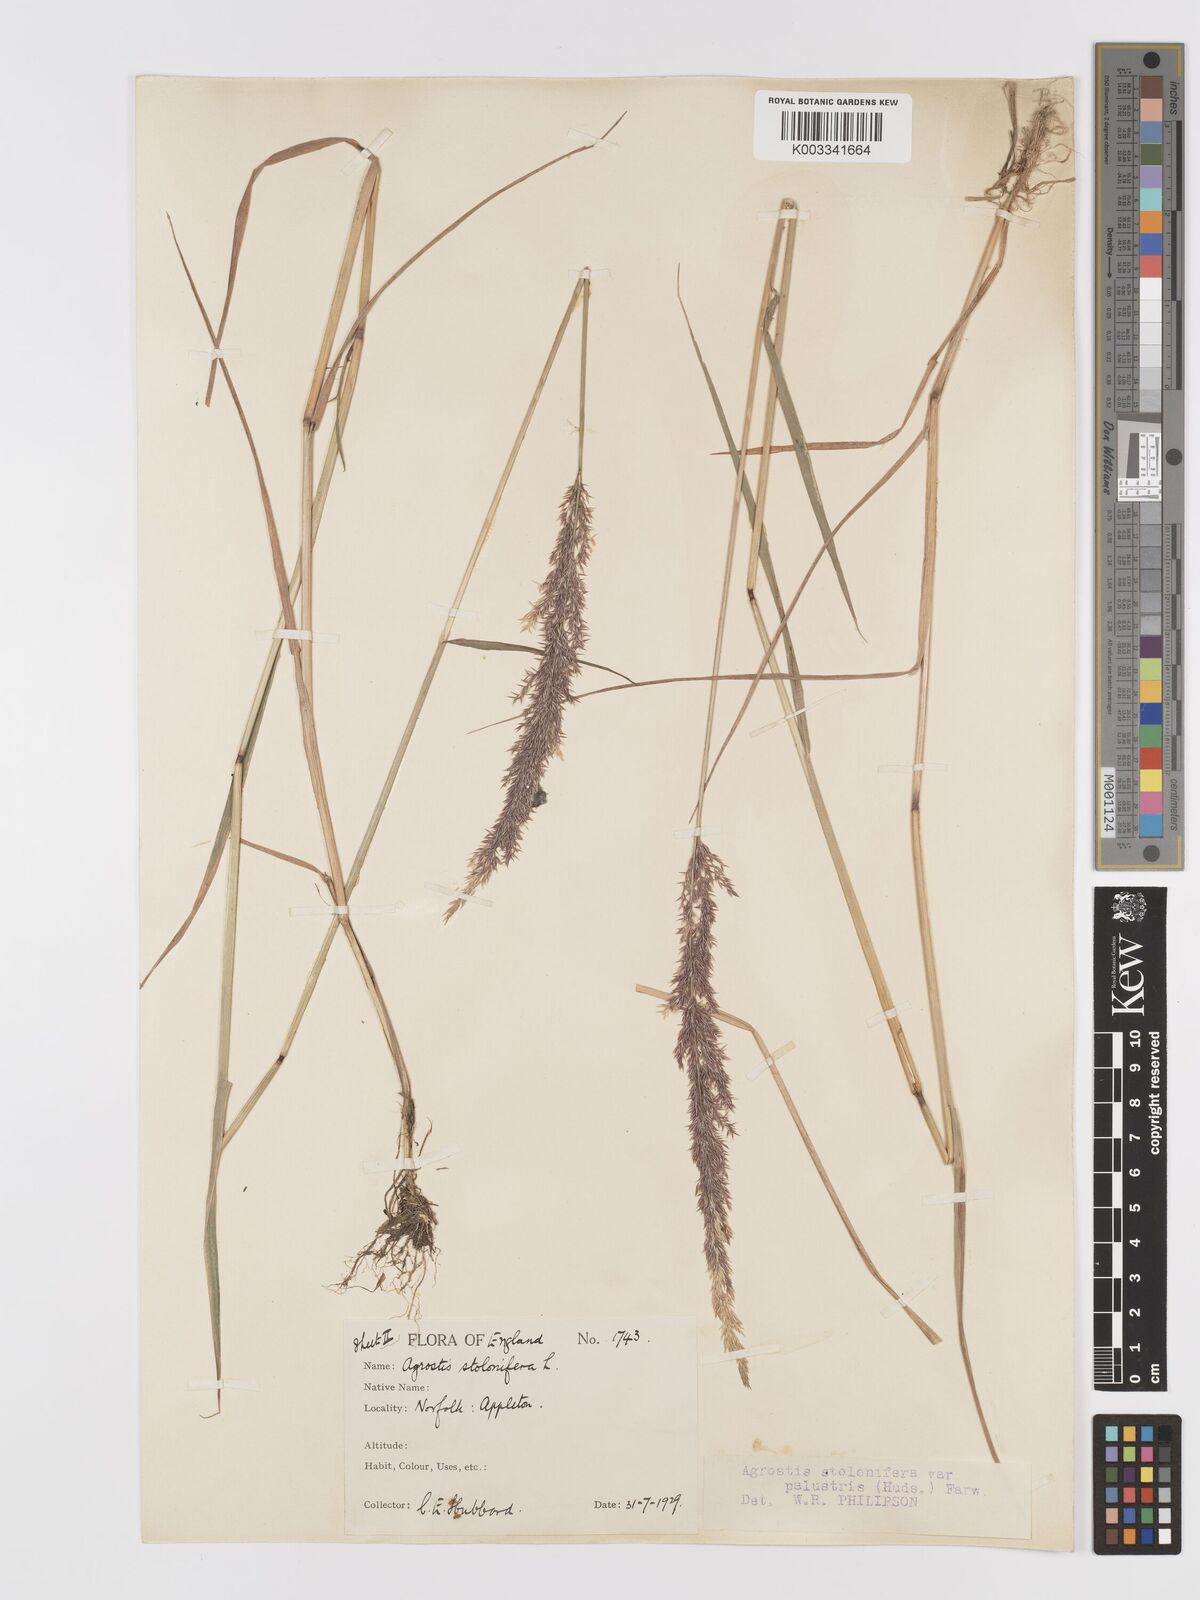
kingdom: Plantae
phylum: Tracheophyta
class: Liliopsida
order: Poales
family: Poaceae
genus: Agrostis
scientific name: Agrostis stolonifera
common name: Creeping bentgrass
